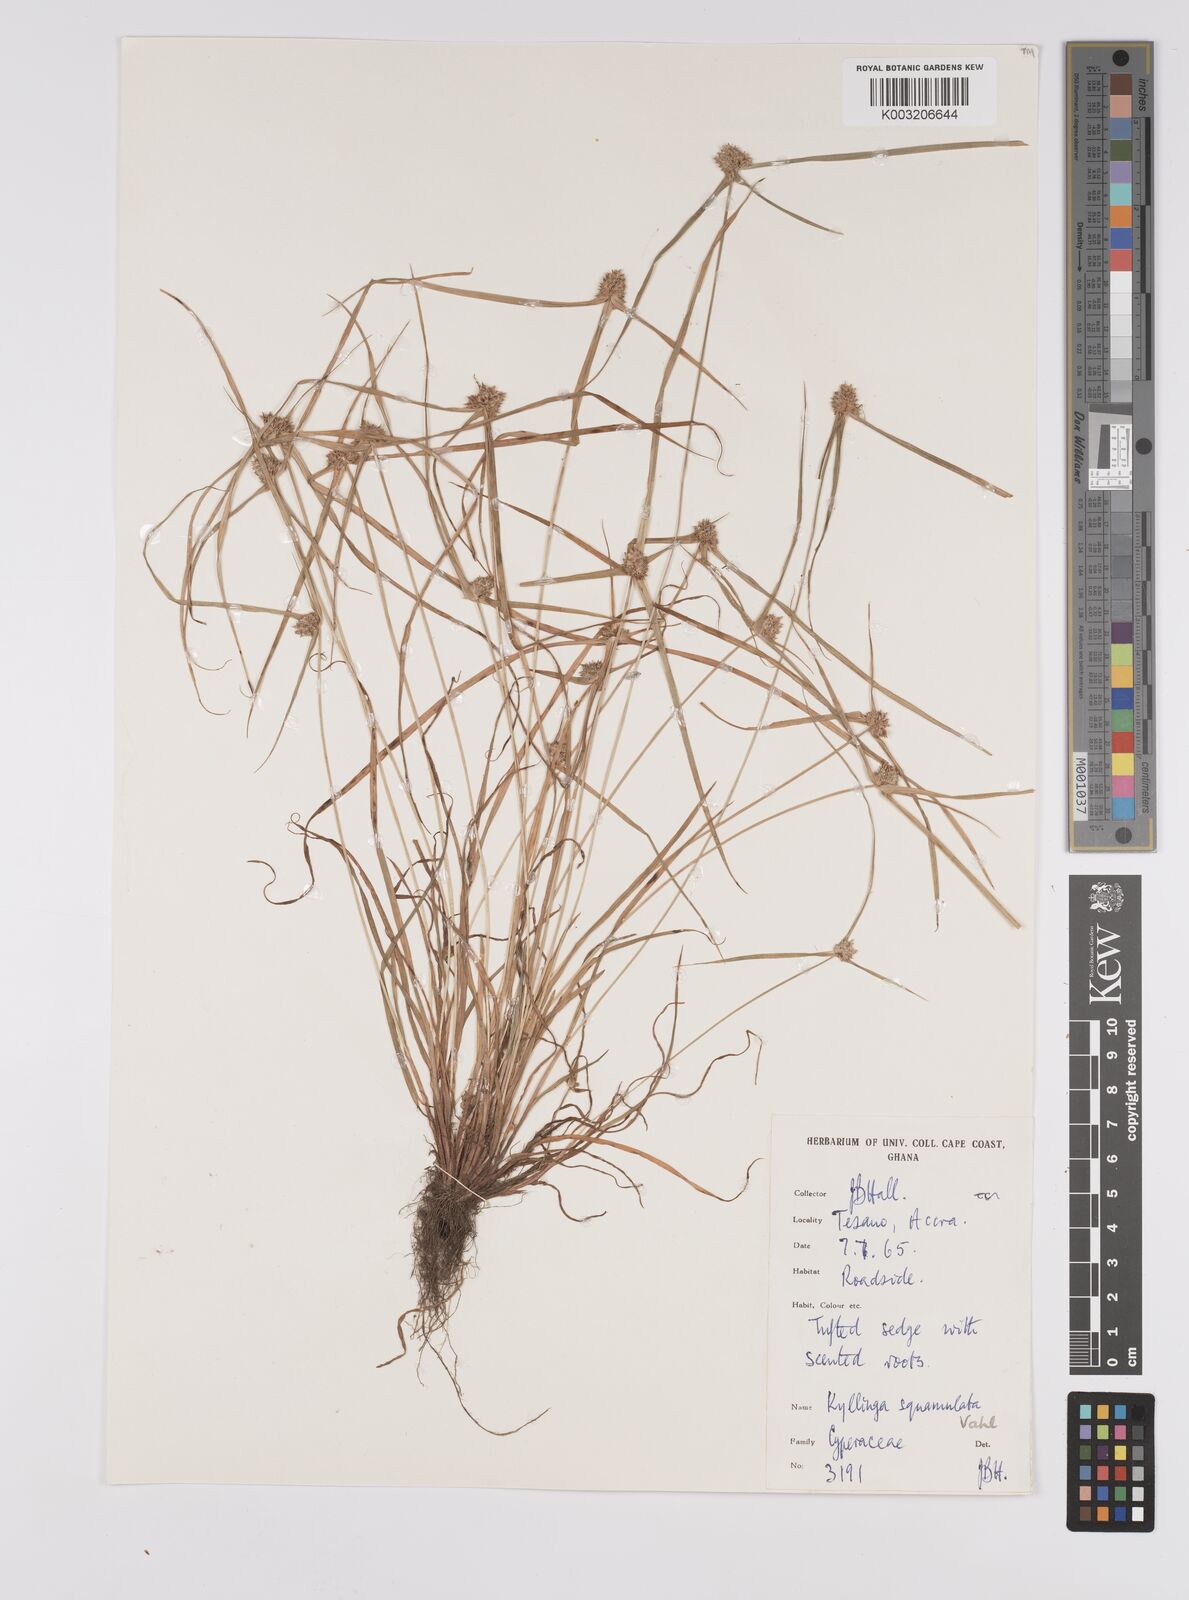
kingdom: Plantae
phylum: Tracheophyta
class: Liliopsida
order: Poales
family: Cyperaceae
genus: Cyperus
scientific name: Cyperus distans
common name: Slender cyperus
